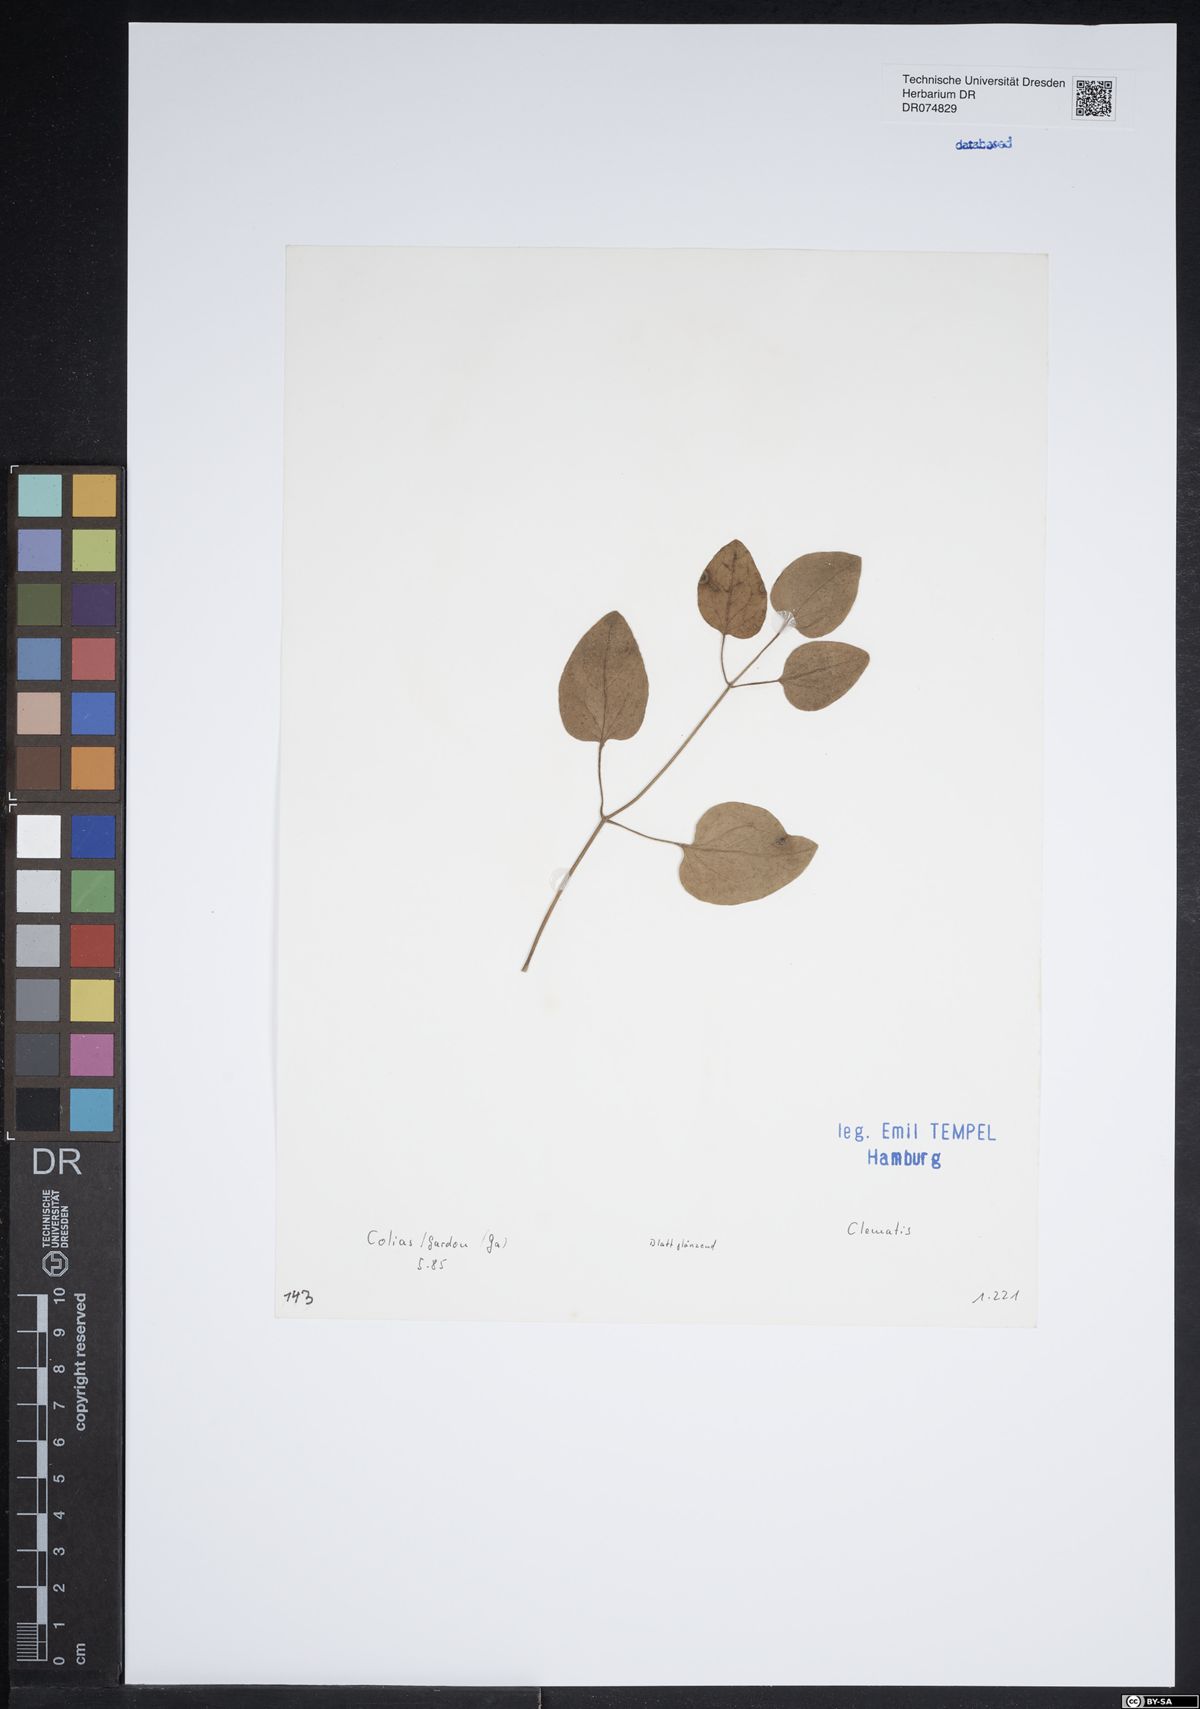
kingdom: Plantae
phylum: Tracheophyta
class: Magnoliopsida
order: Ranunculales
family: Ranunculaceae
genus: Clematis
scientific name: Clematis
